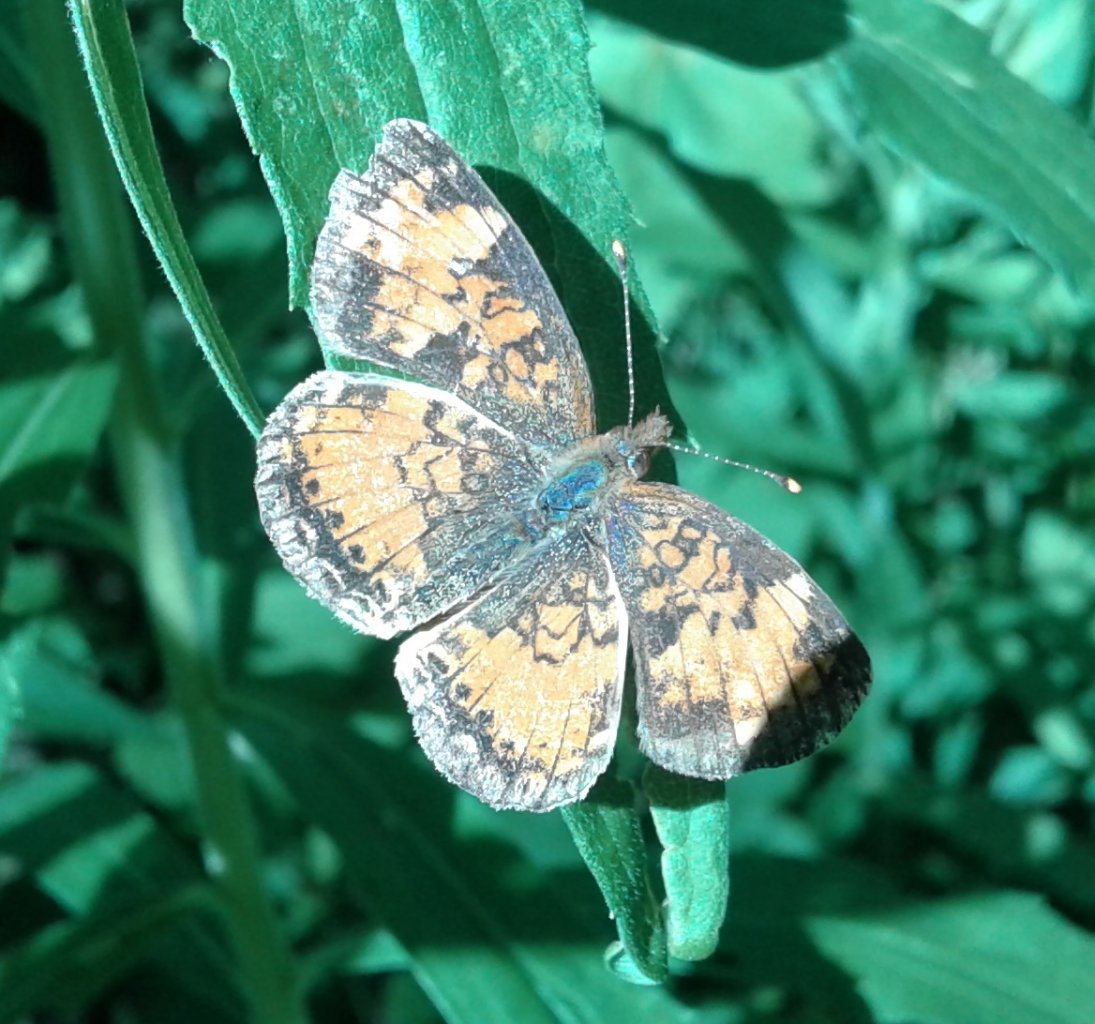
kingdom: Animalia
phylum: Arthropoda
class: Insecta
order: Lepidoptera
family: Nymphalidae
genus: Phyciodes
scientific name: Phyciodes tharos
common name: Northern Crescent
